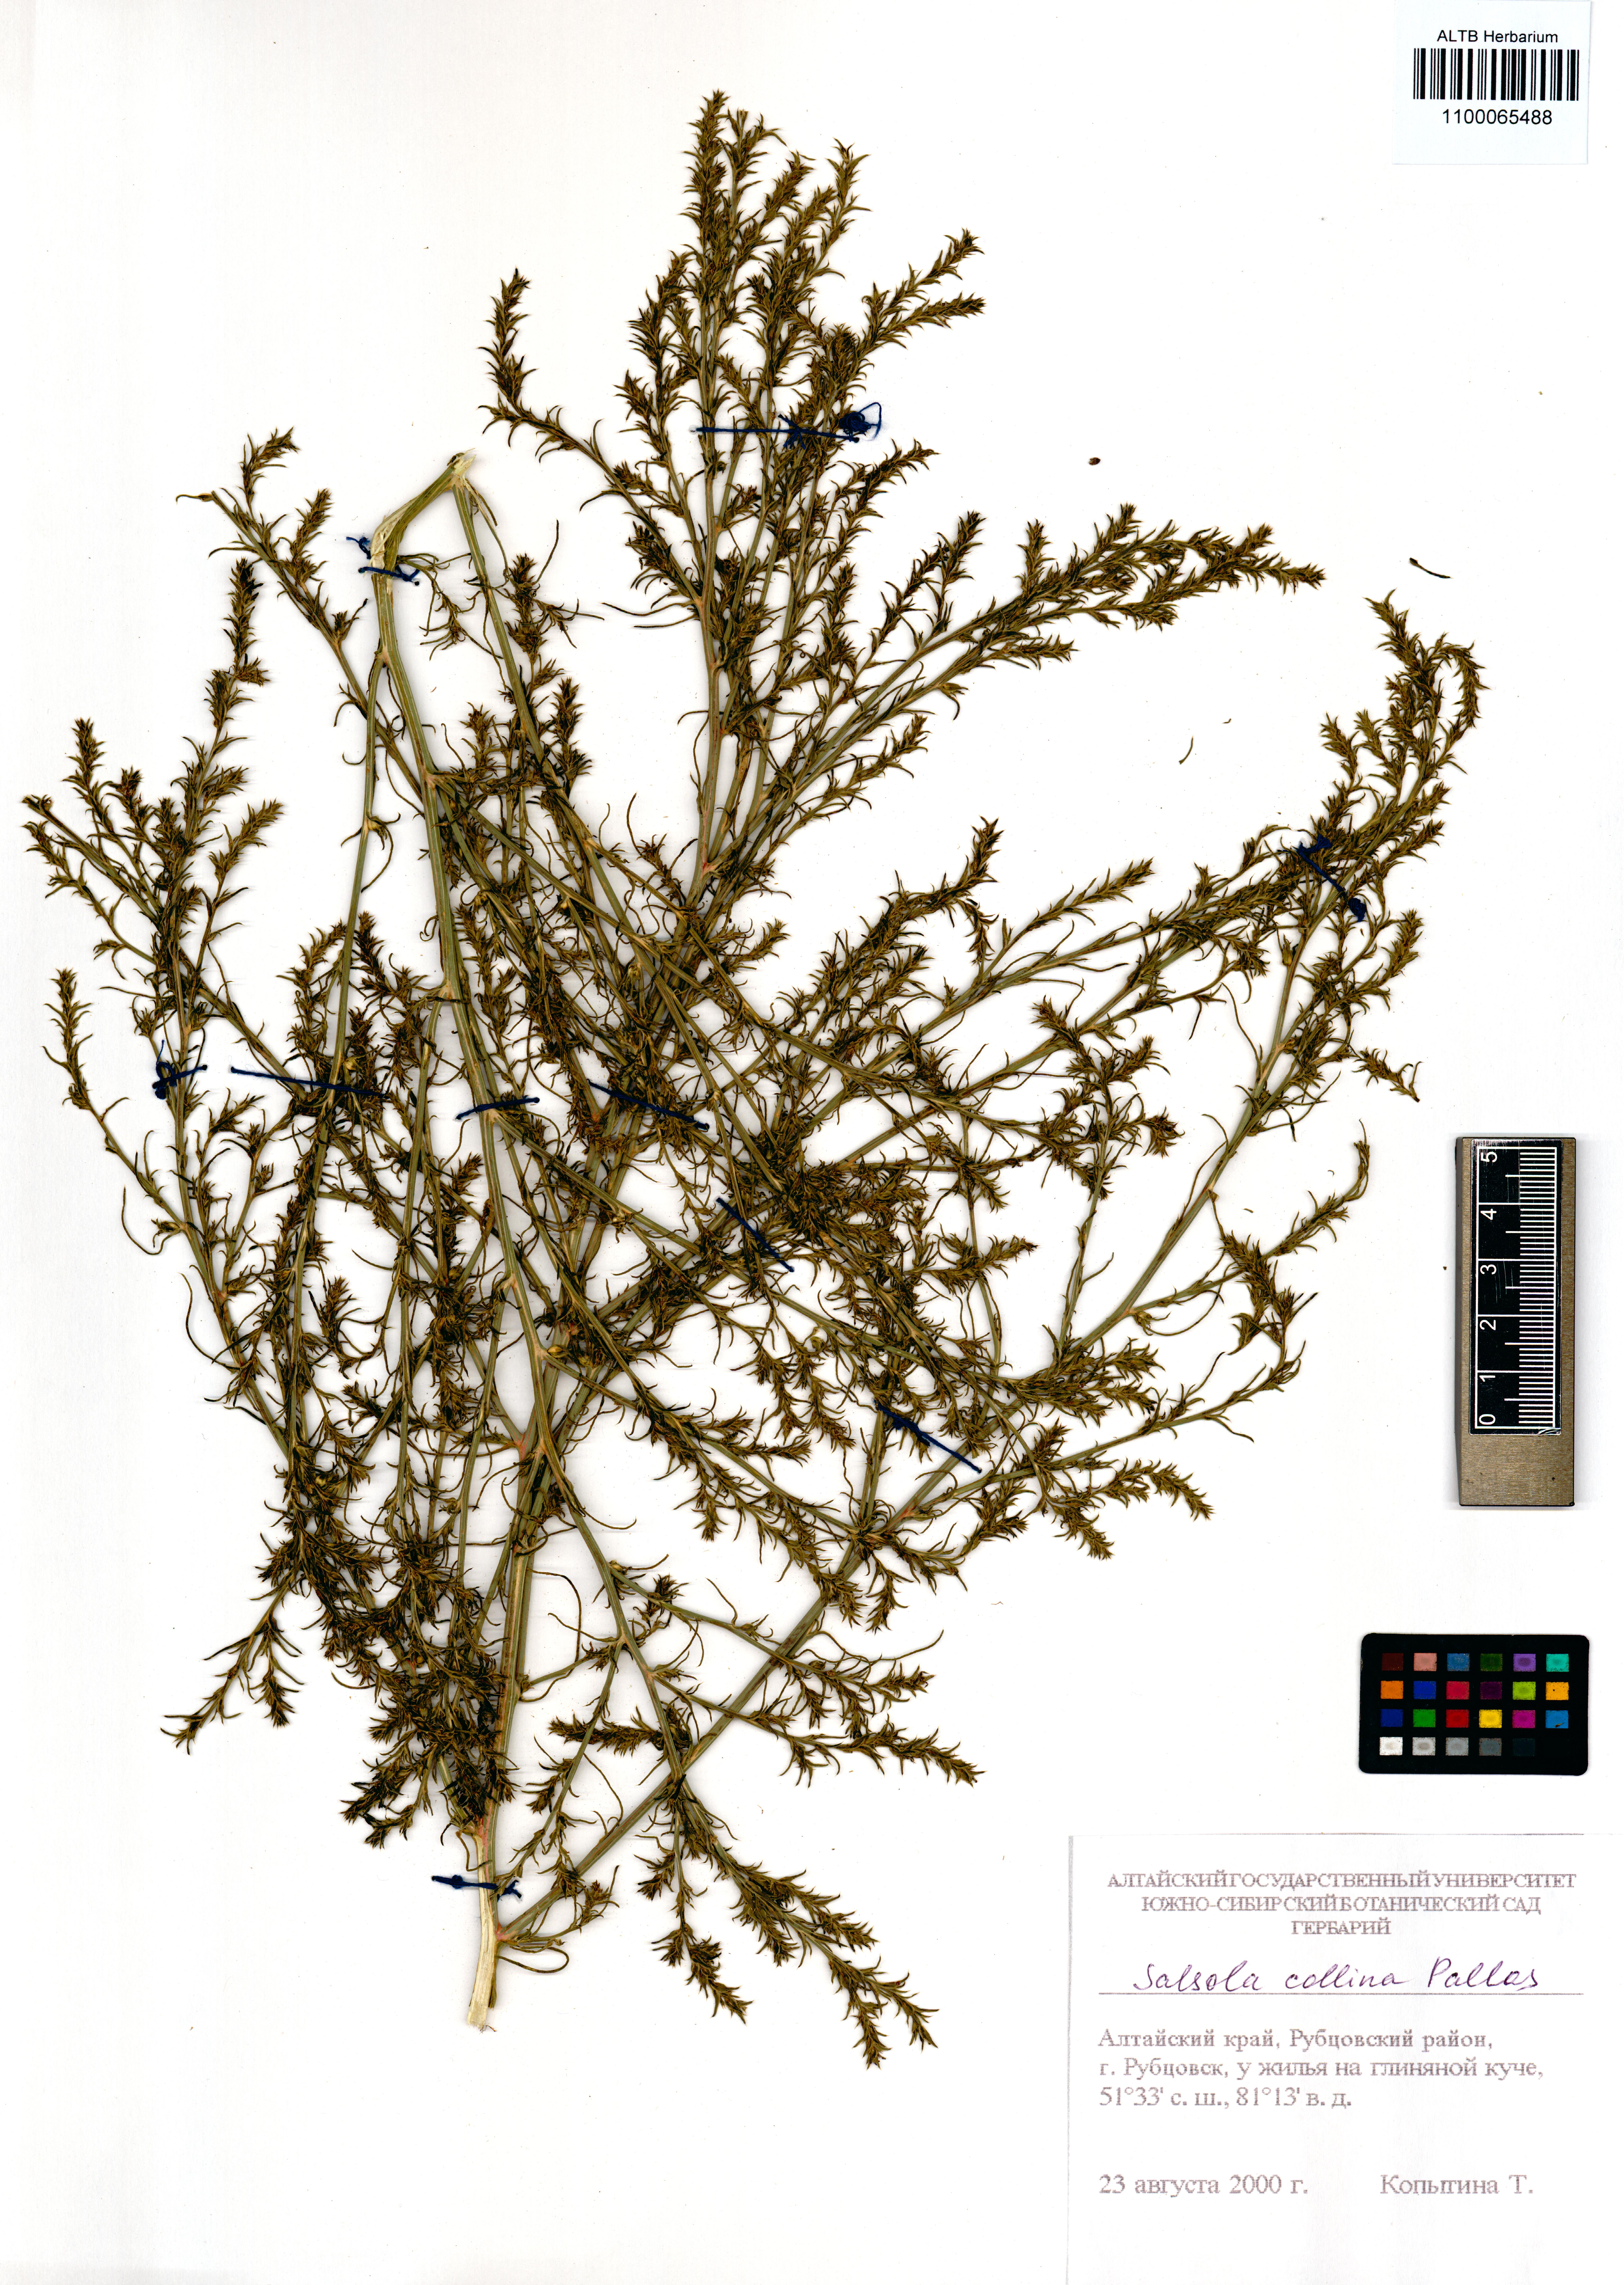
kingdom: Plantae
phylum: Tracheophyta
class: Magnoliopsida
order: Caryophyllales
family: Amaranthaceae
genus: Salsola
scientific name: Salsola collina
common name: Tumbleweed
